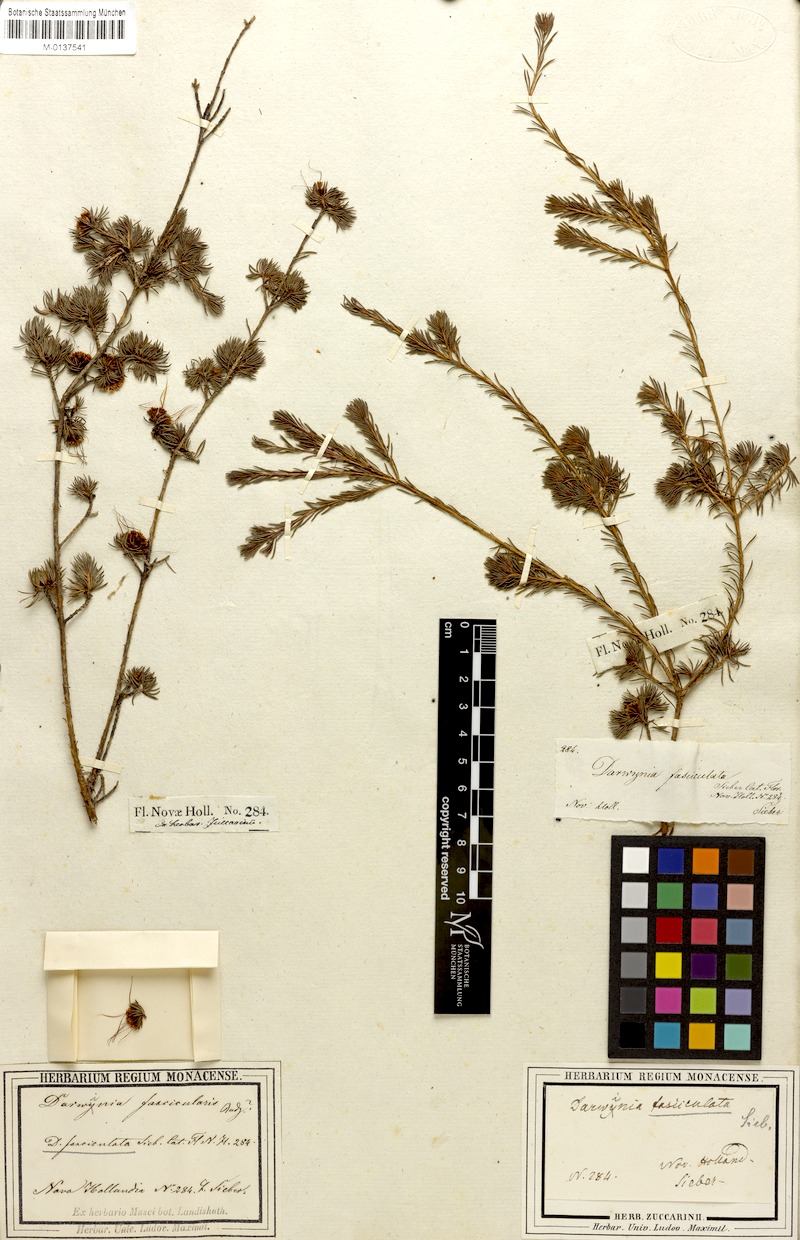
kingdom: Plantae
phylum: Tracheophyta
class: Magnoliopsida
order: Myrtales
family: Myrtaceae
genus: Darwinia
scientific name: Darwinia fascicularis
